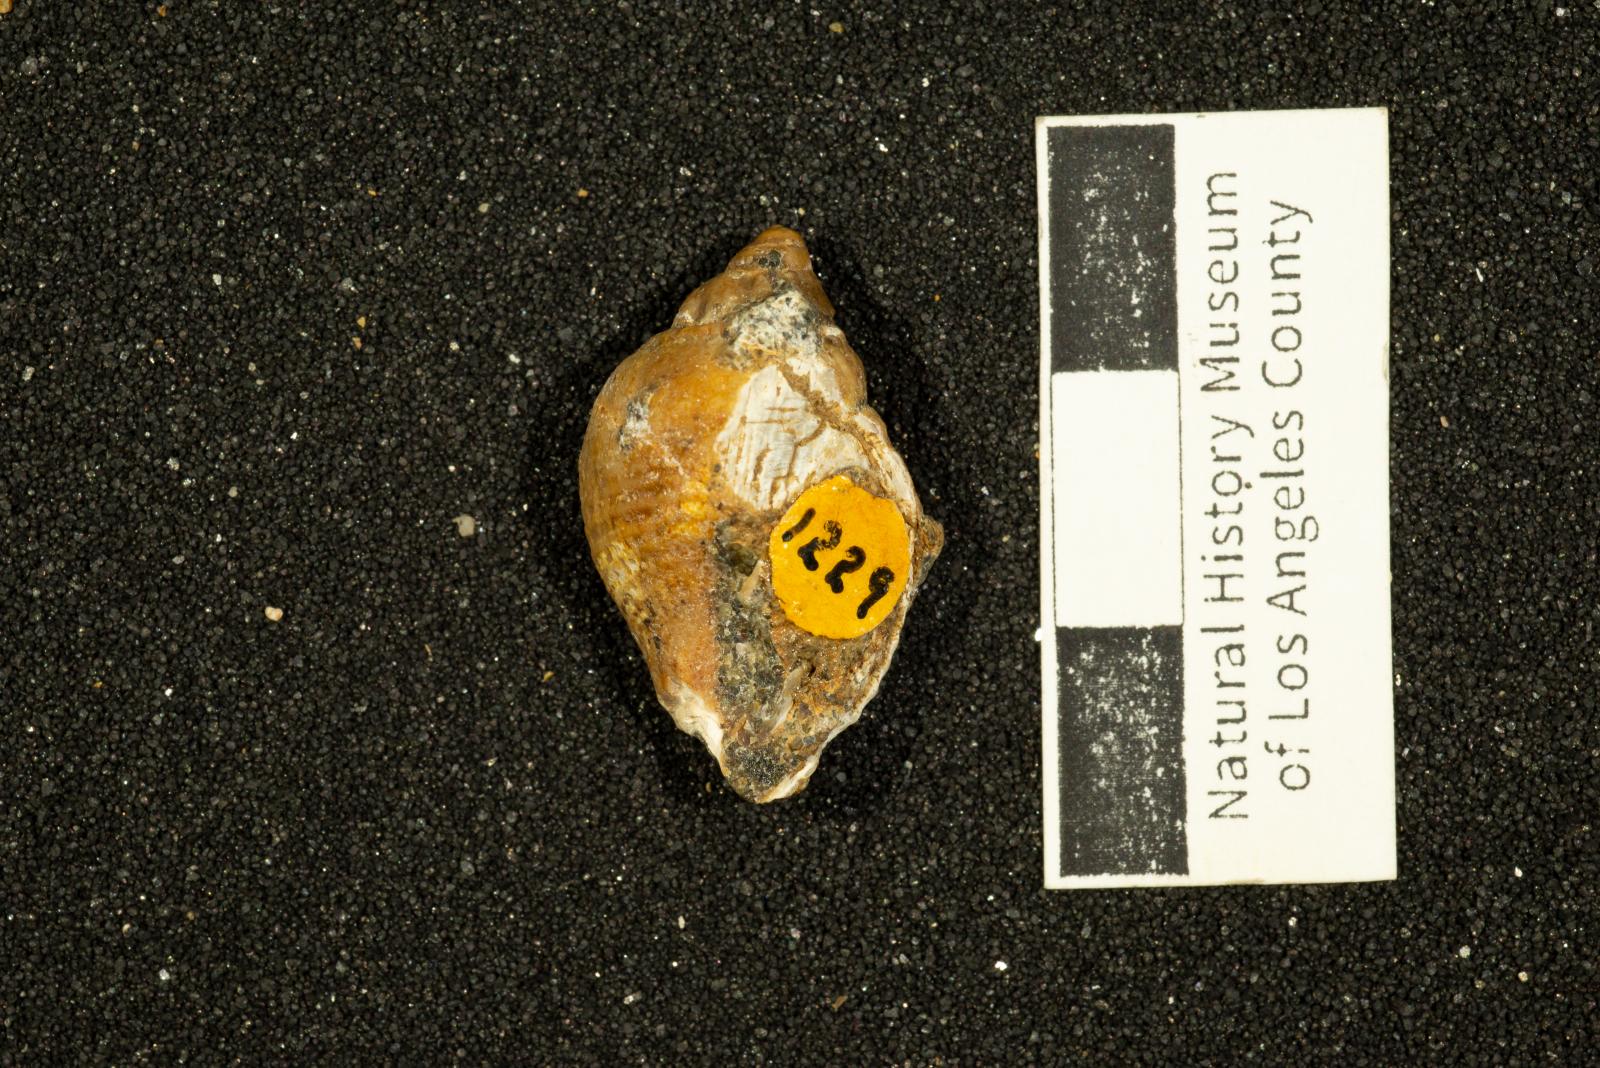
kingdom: Animalia
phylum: Mollusca
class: Gastropoda
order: Neogastropoda
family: Fasciolariidae
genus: Plectocion
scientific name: Plectocion Neptunea curvirostris
